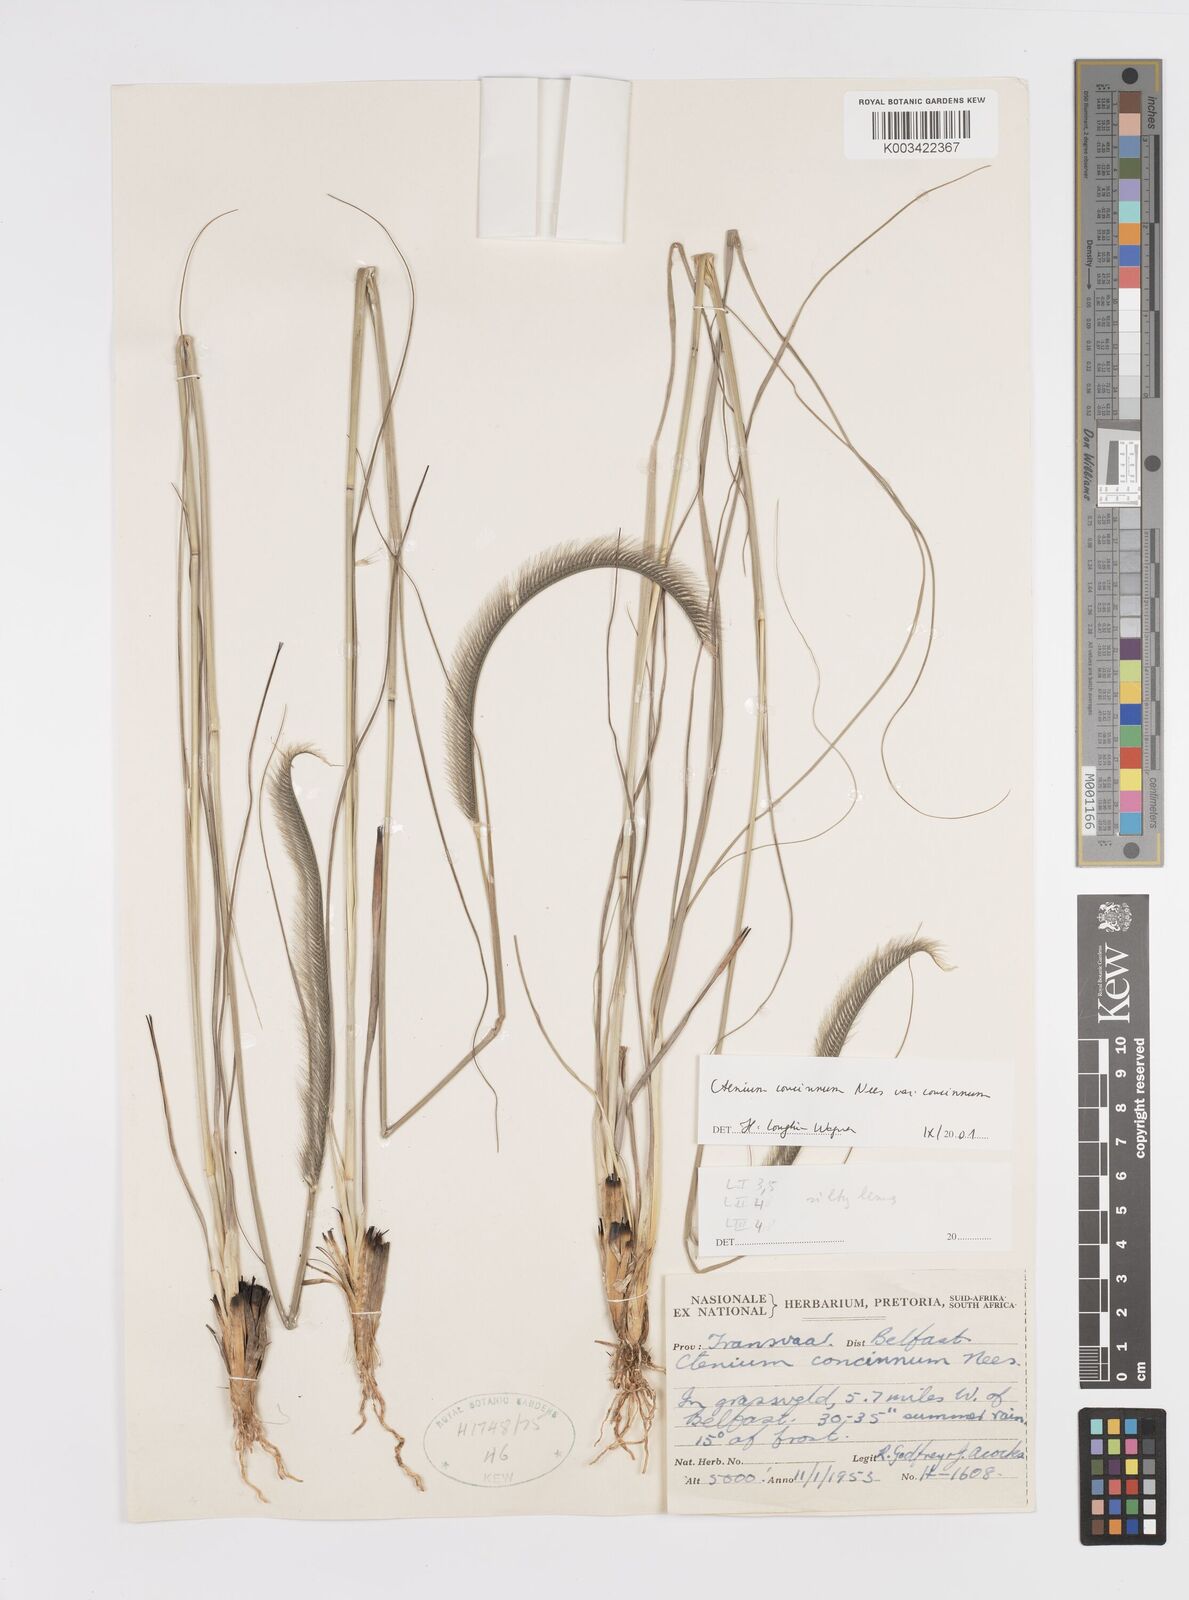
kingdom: Plantae
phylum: Tracheophyta
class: Liliopsida
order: Poales
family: Poaceae
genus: Ctenium
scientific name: Ctenium concinnum
